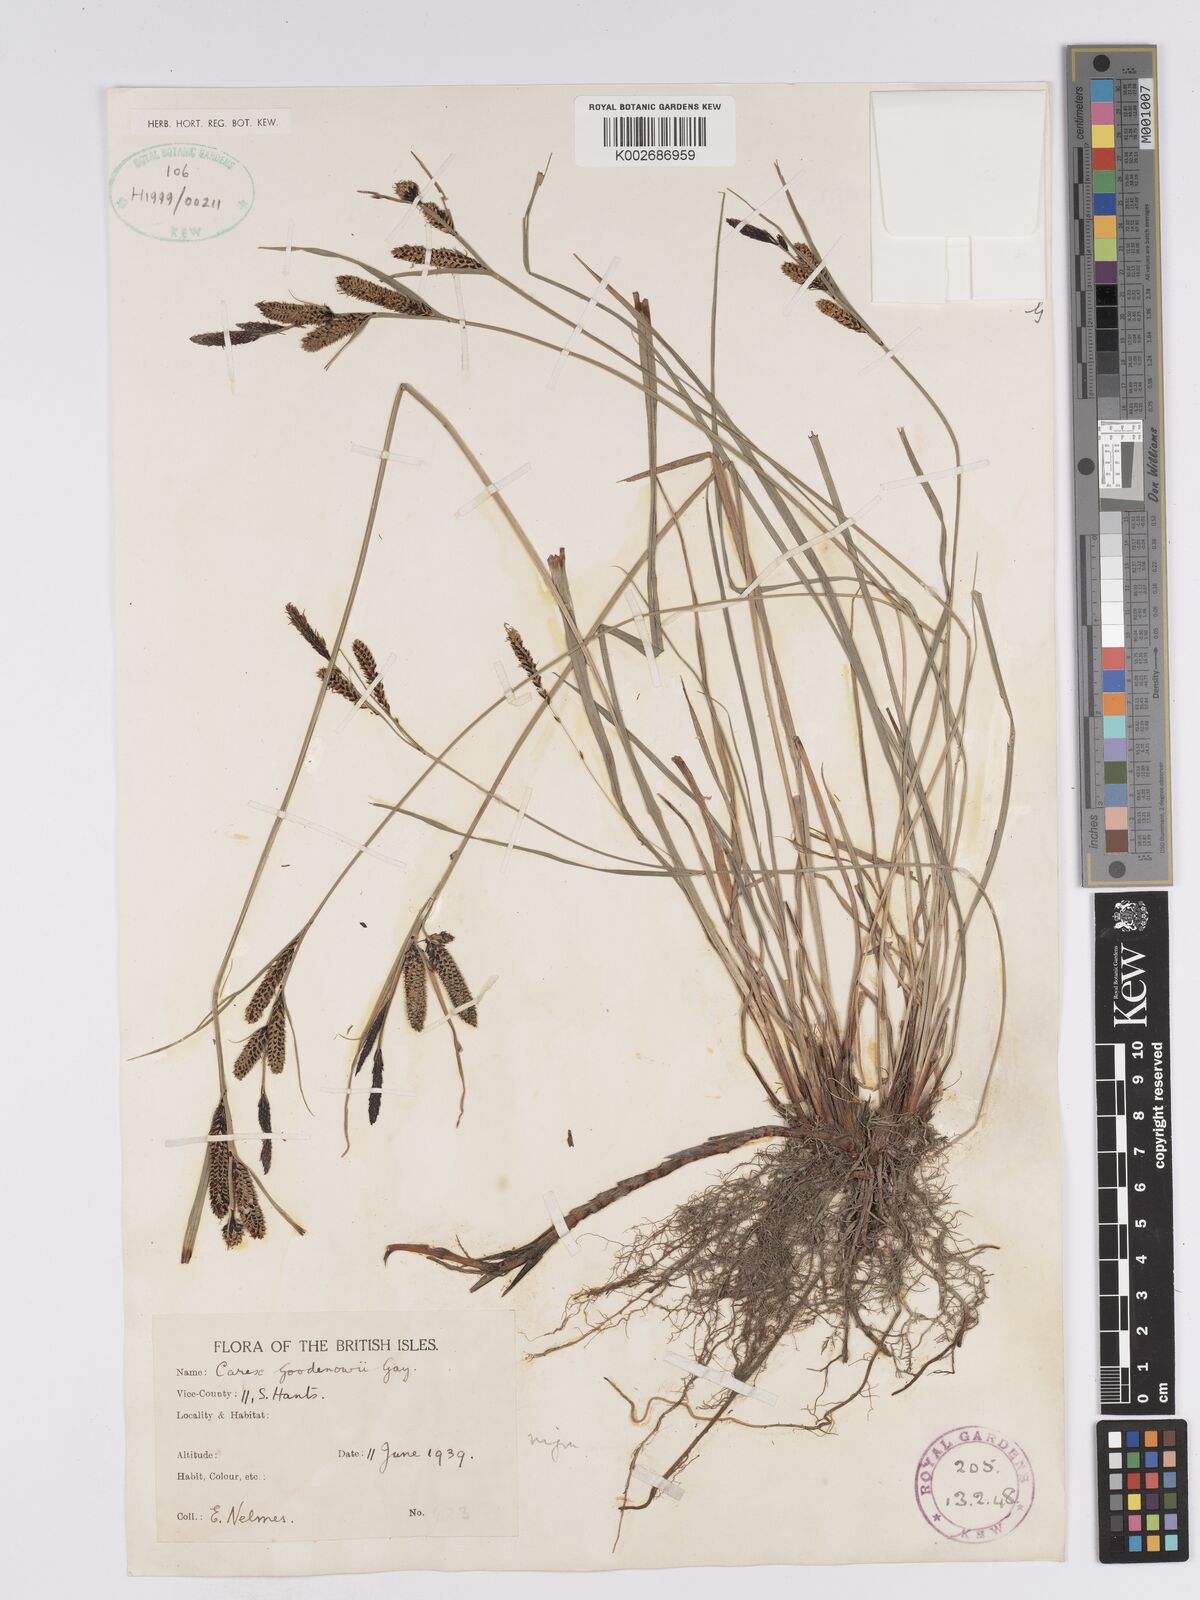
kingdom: Plantae
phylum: Tracheophyta
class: Liliopsida
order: Poales
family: Cyperaceae
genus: Carex
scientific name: Carex nigra
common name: Common sedge
